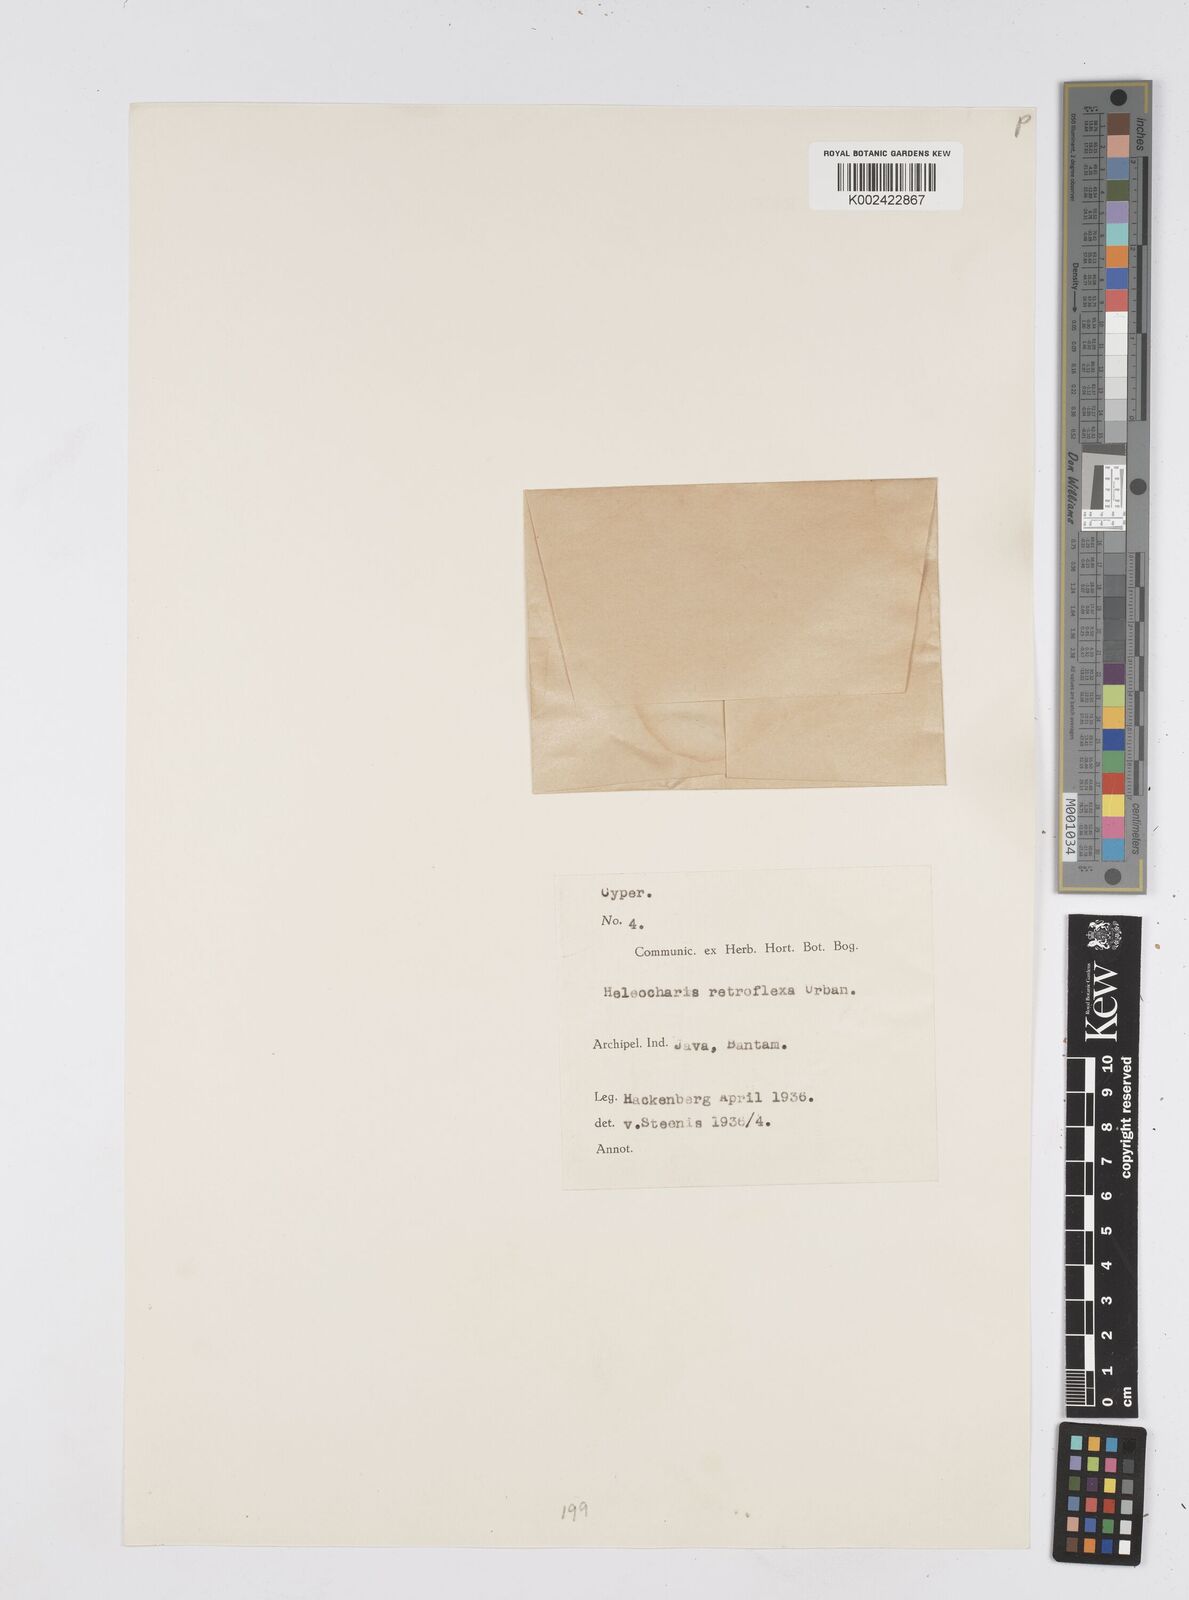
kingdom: Plantae
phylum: Tracheophyta
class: Liliopsida
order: Poales
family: Cyperaceae
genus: Eleocharis
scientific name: Eleocharis retroflexa
